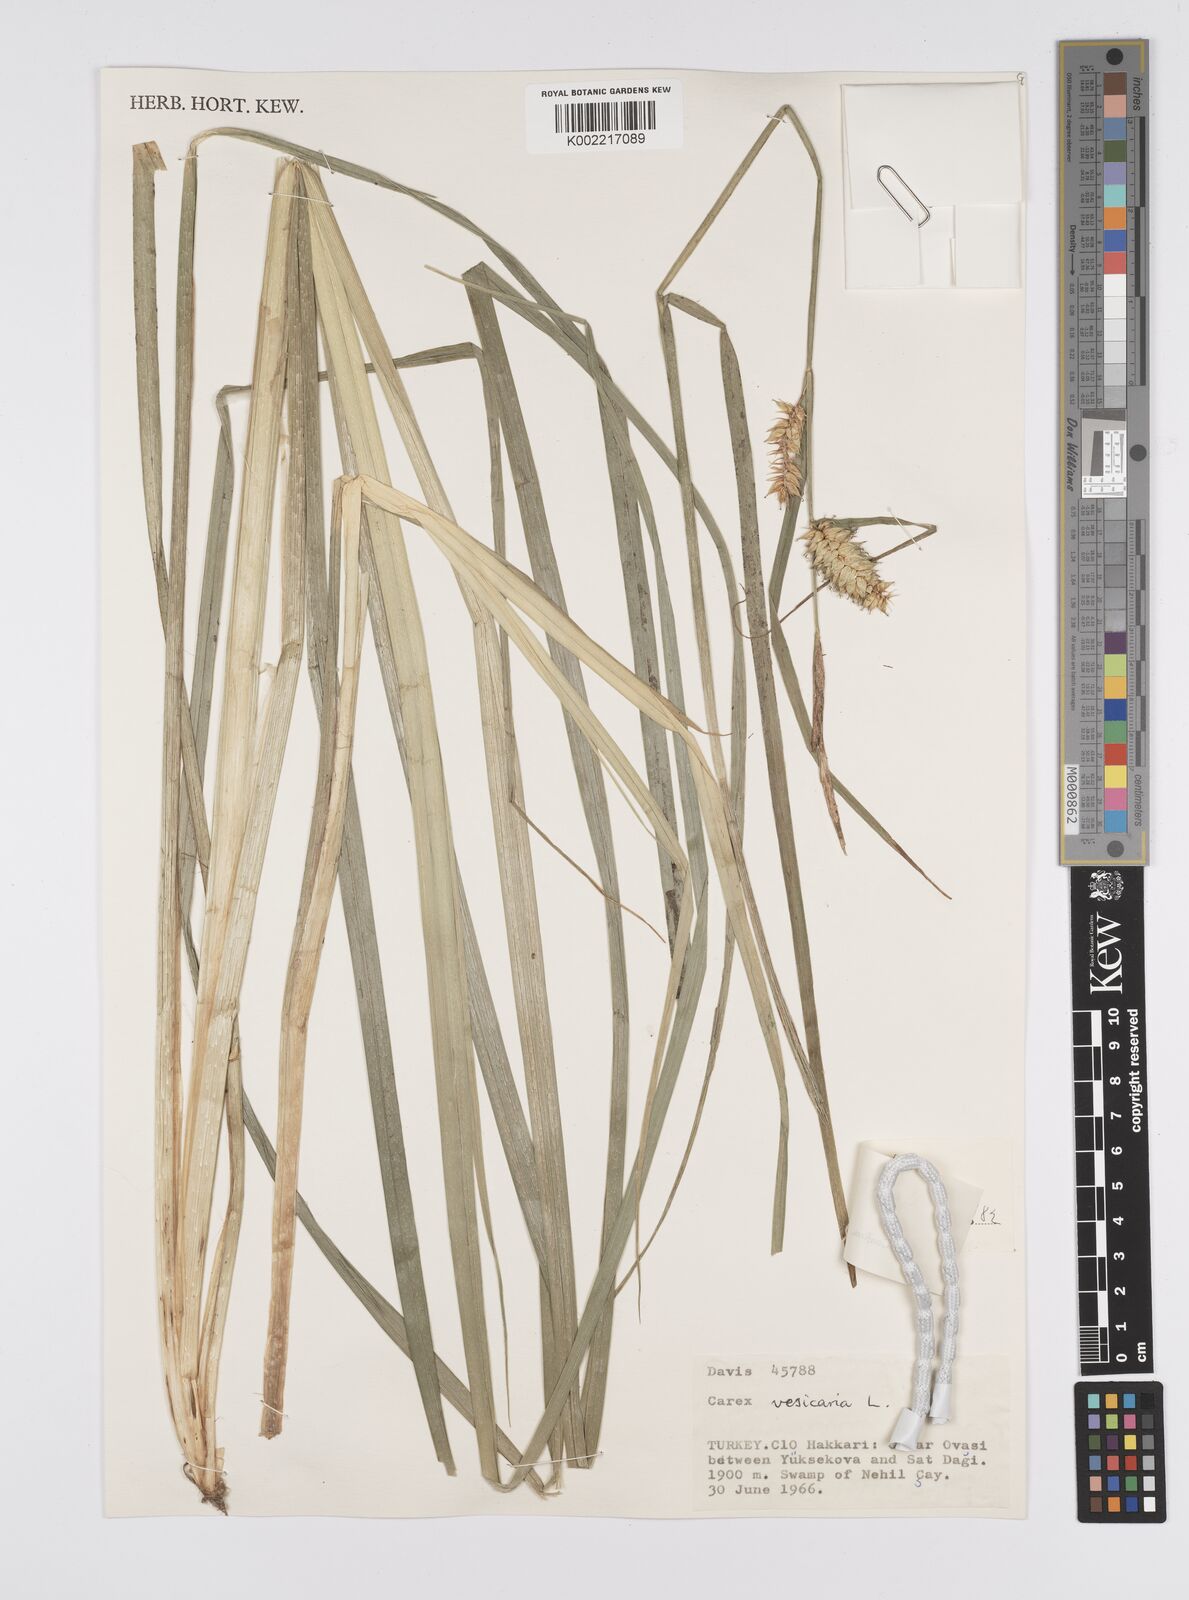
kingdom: Plantae
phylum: Tracheophyta
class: Liliopsida
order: Poales
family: Cyperaceae
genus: Carex
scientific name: Carex vesicaria
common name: Bladder-sedge
